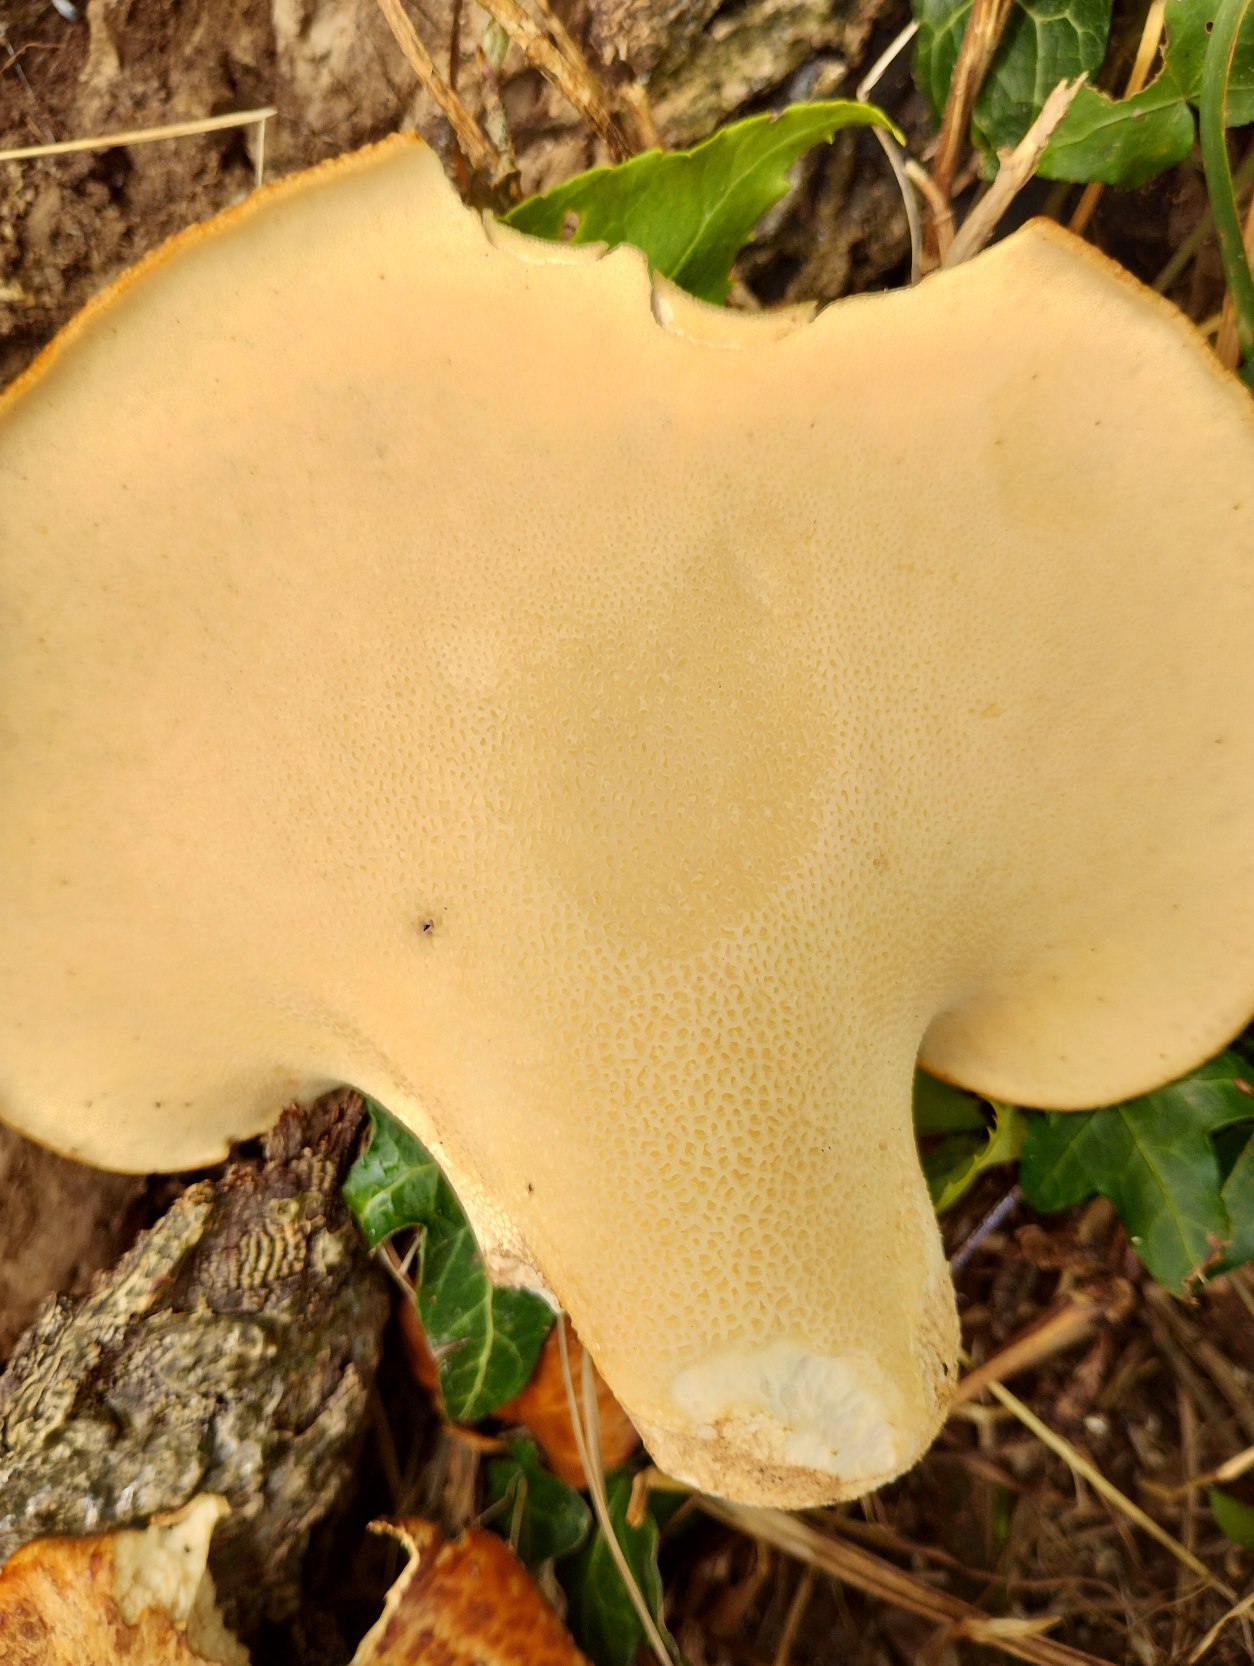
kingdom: Fungi
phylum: Basidiomycota
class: Agaricomycetes
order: Polyporales
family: Polyporaceae
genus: Cerioporus
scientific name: Cerioporus squamosus
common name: Skællet stilkporesvamp
